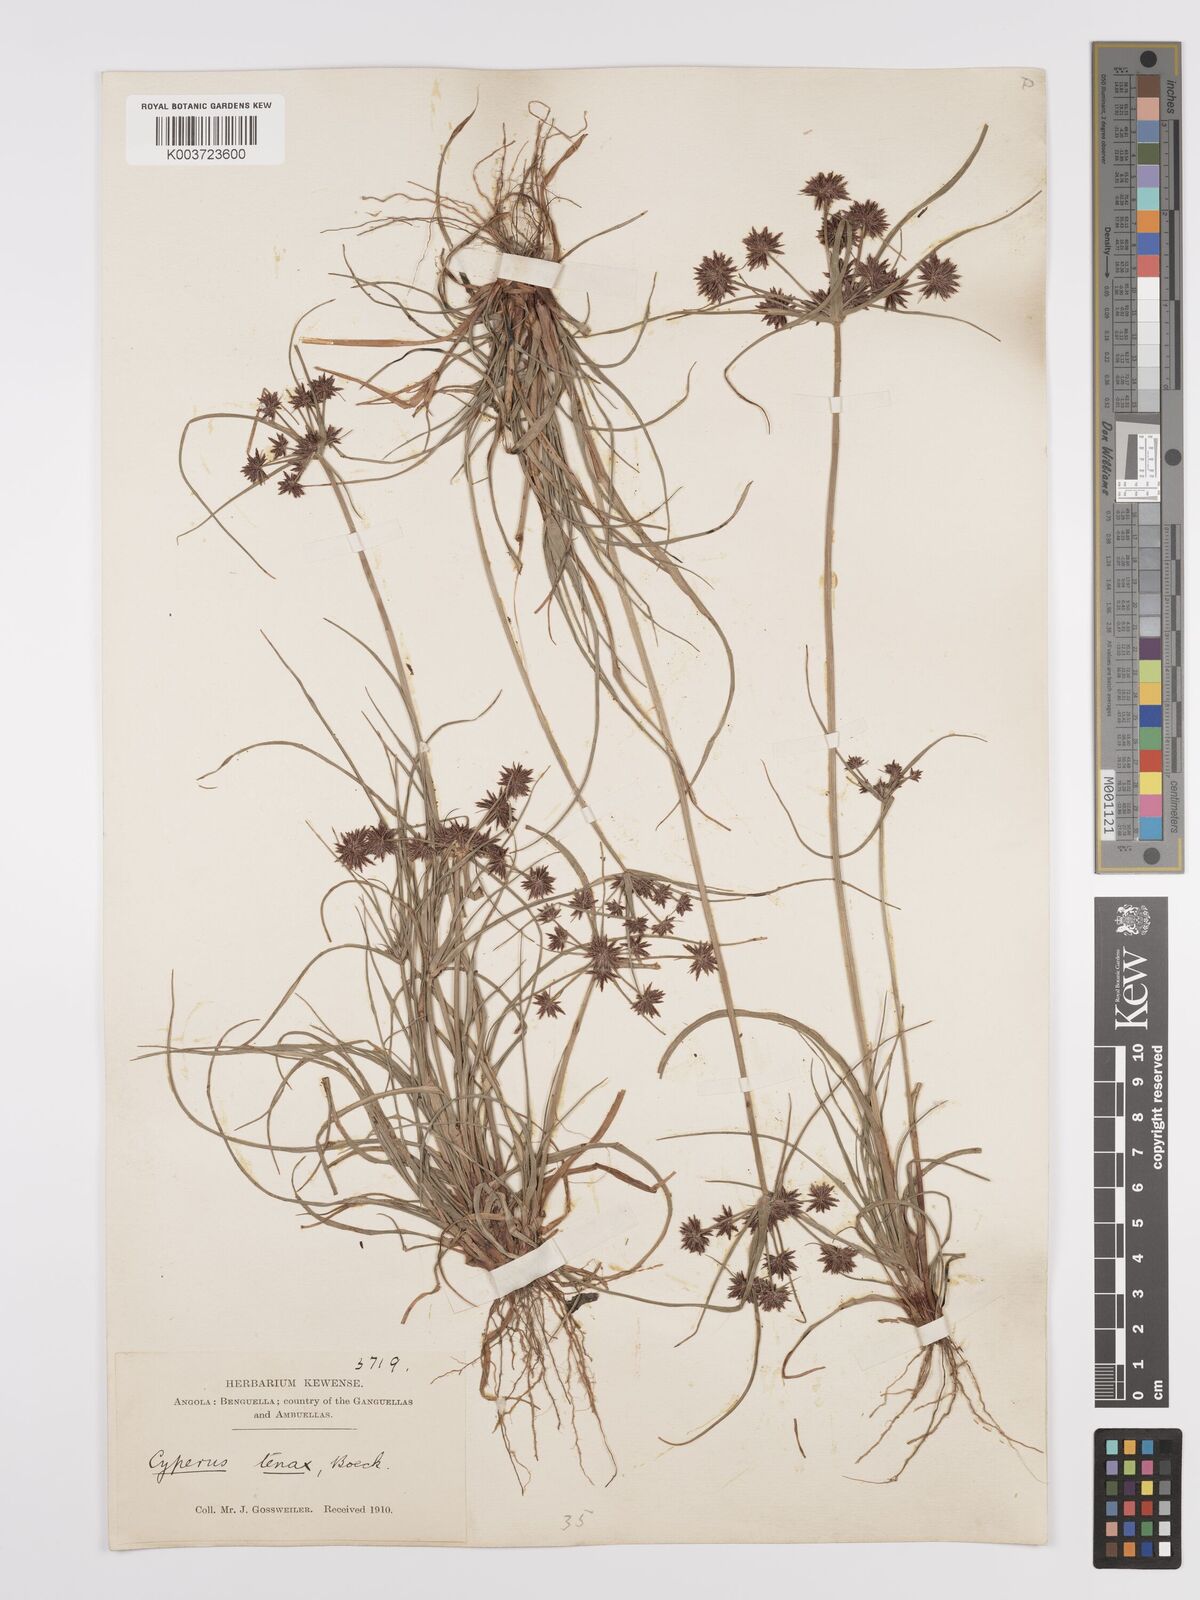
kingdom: Plantae
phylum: Tracheophyta
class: Liliopsida
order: Poales
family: Cyperaceae
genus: Cyperus
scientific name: Cyperus tenax
